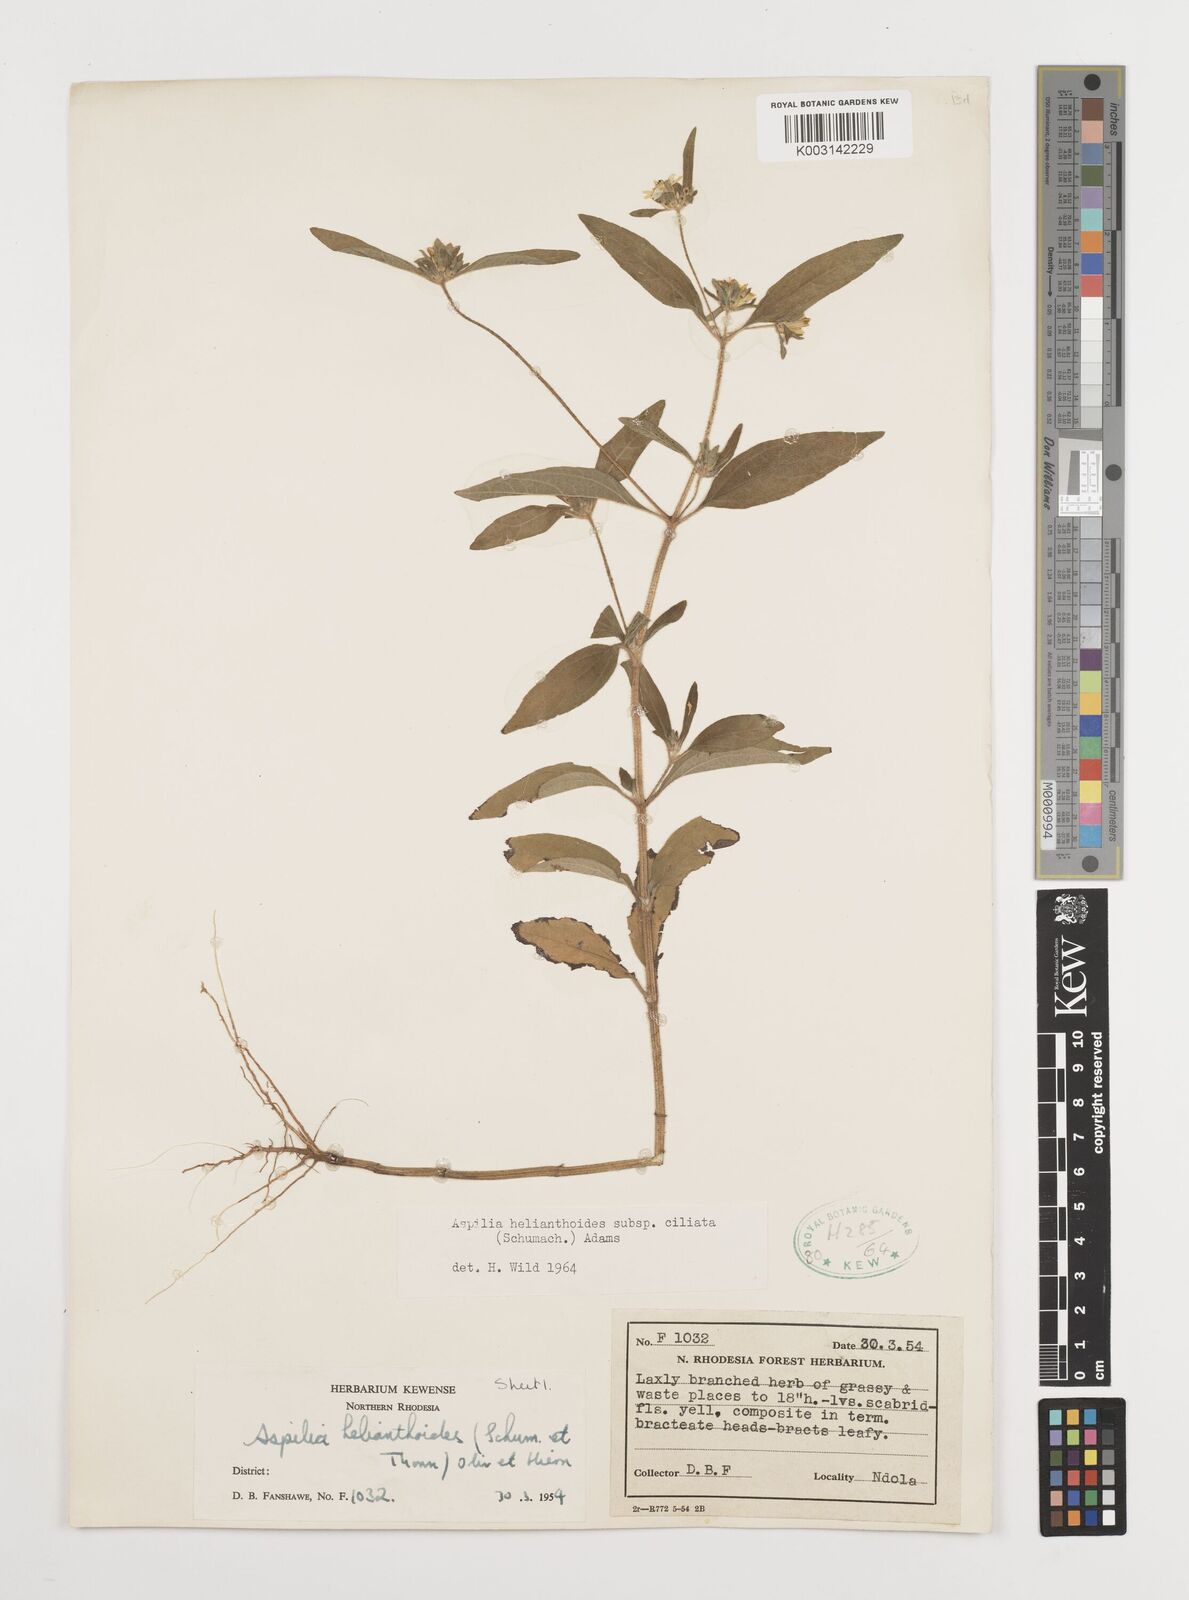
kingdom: Plantae
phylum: Tracheophyta
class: Magnoliopsida
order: Asterales
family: Asteraceae
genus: Aspilia
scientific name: Aspilia ciliata
